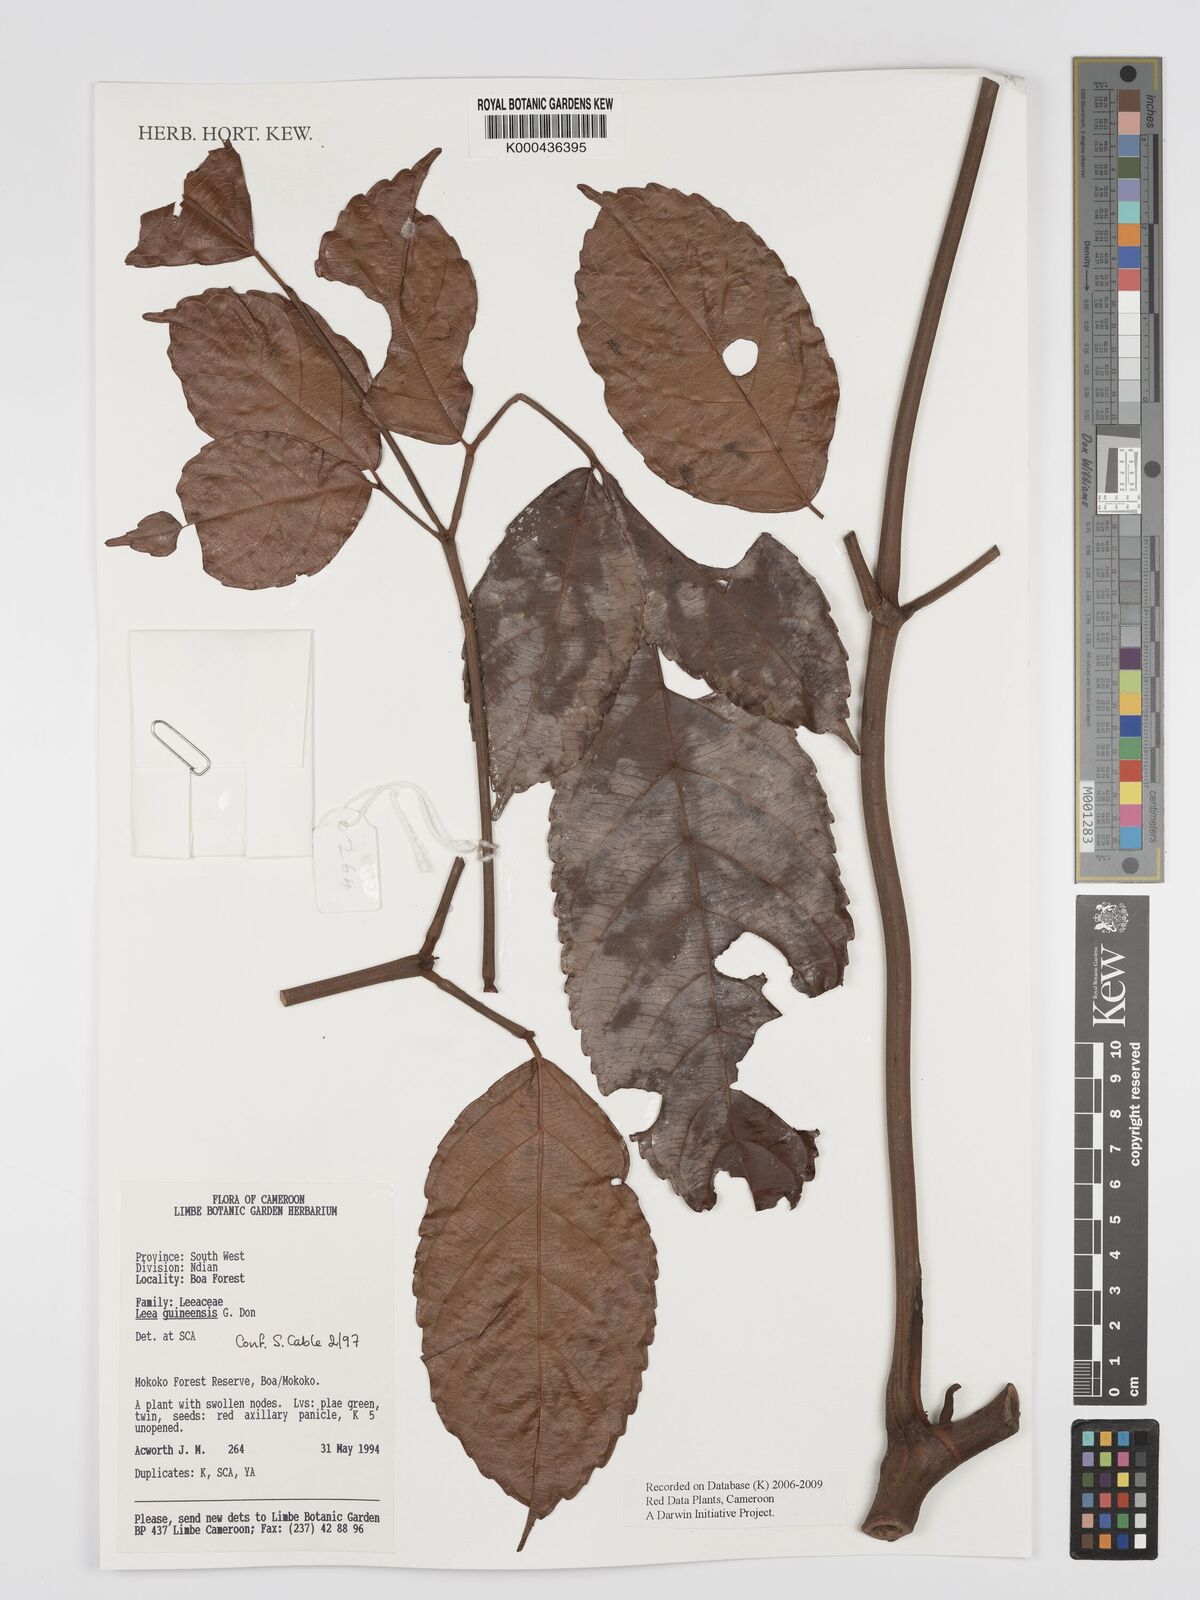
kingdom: Plantae
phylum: Tracheophyta
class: Magnoliopsida
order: Vitales
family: Vitaceae
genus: Leea
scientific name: Leea guineensis
